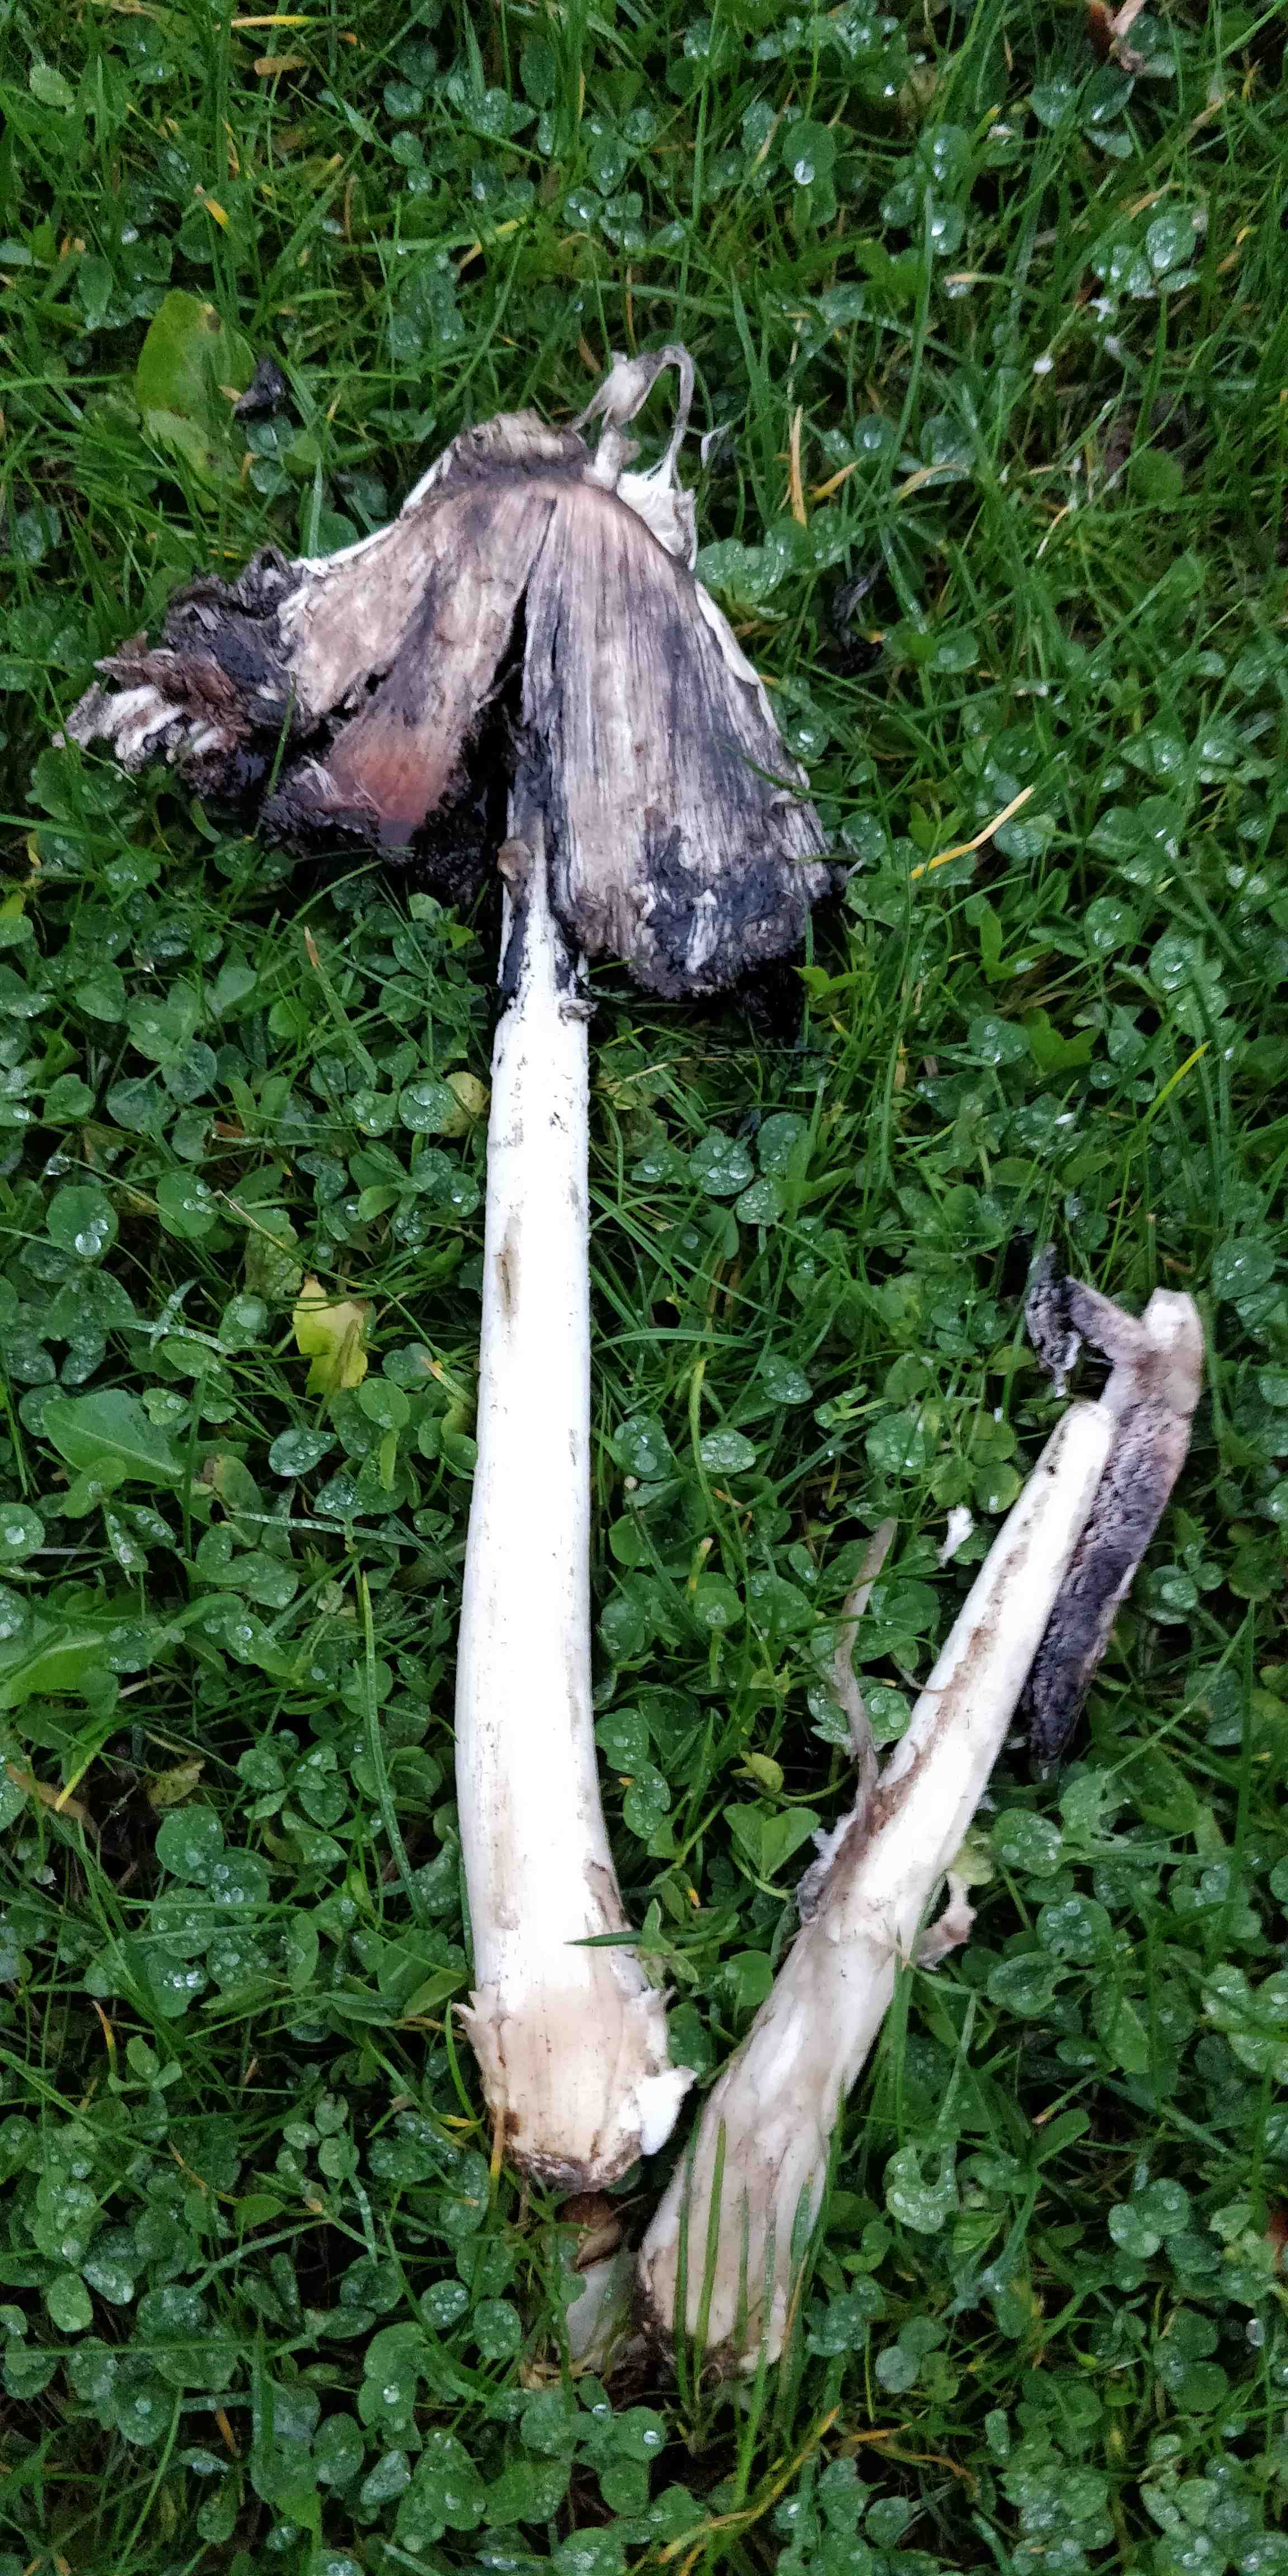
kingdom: Fungi
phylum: Basidiomycota
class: Agaricomycetes
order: Agaricales
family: Agaricaceae
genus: Coprinus
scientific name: Coprinus comatus
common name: stor parykhat
